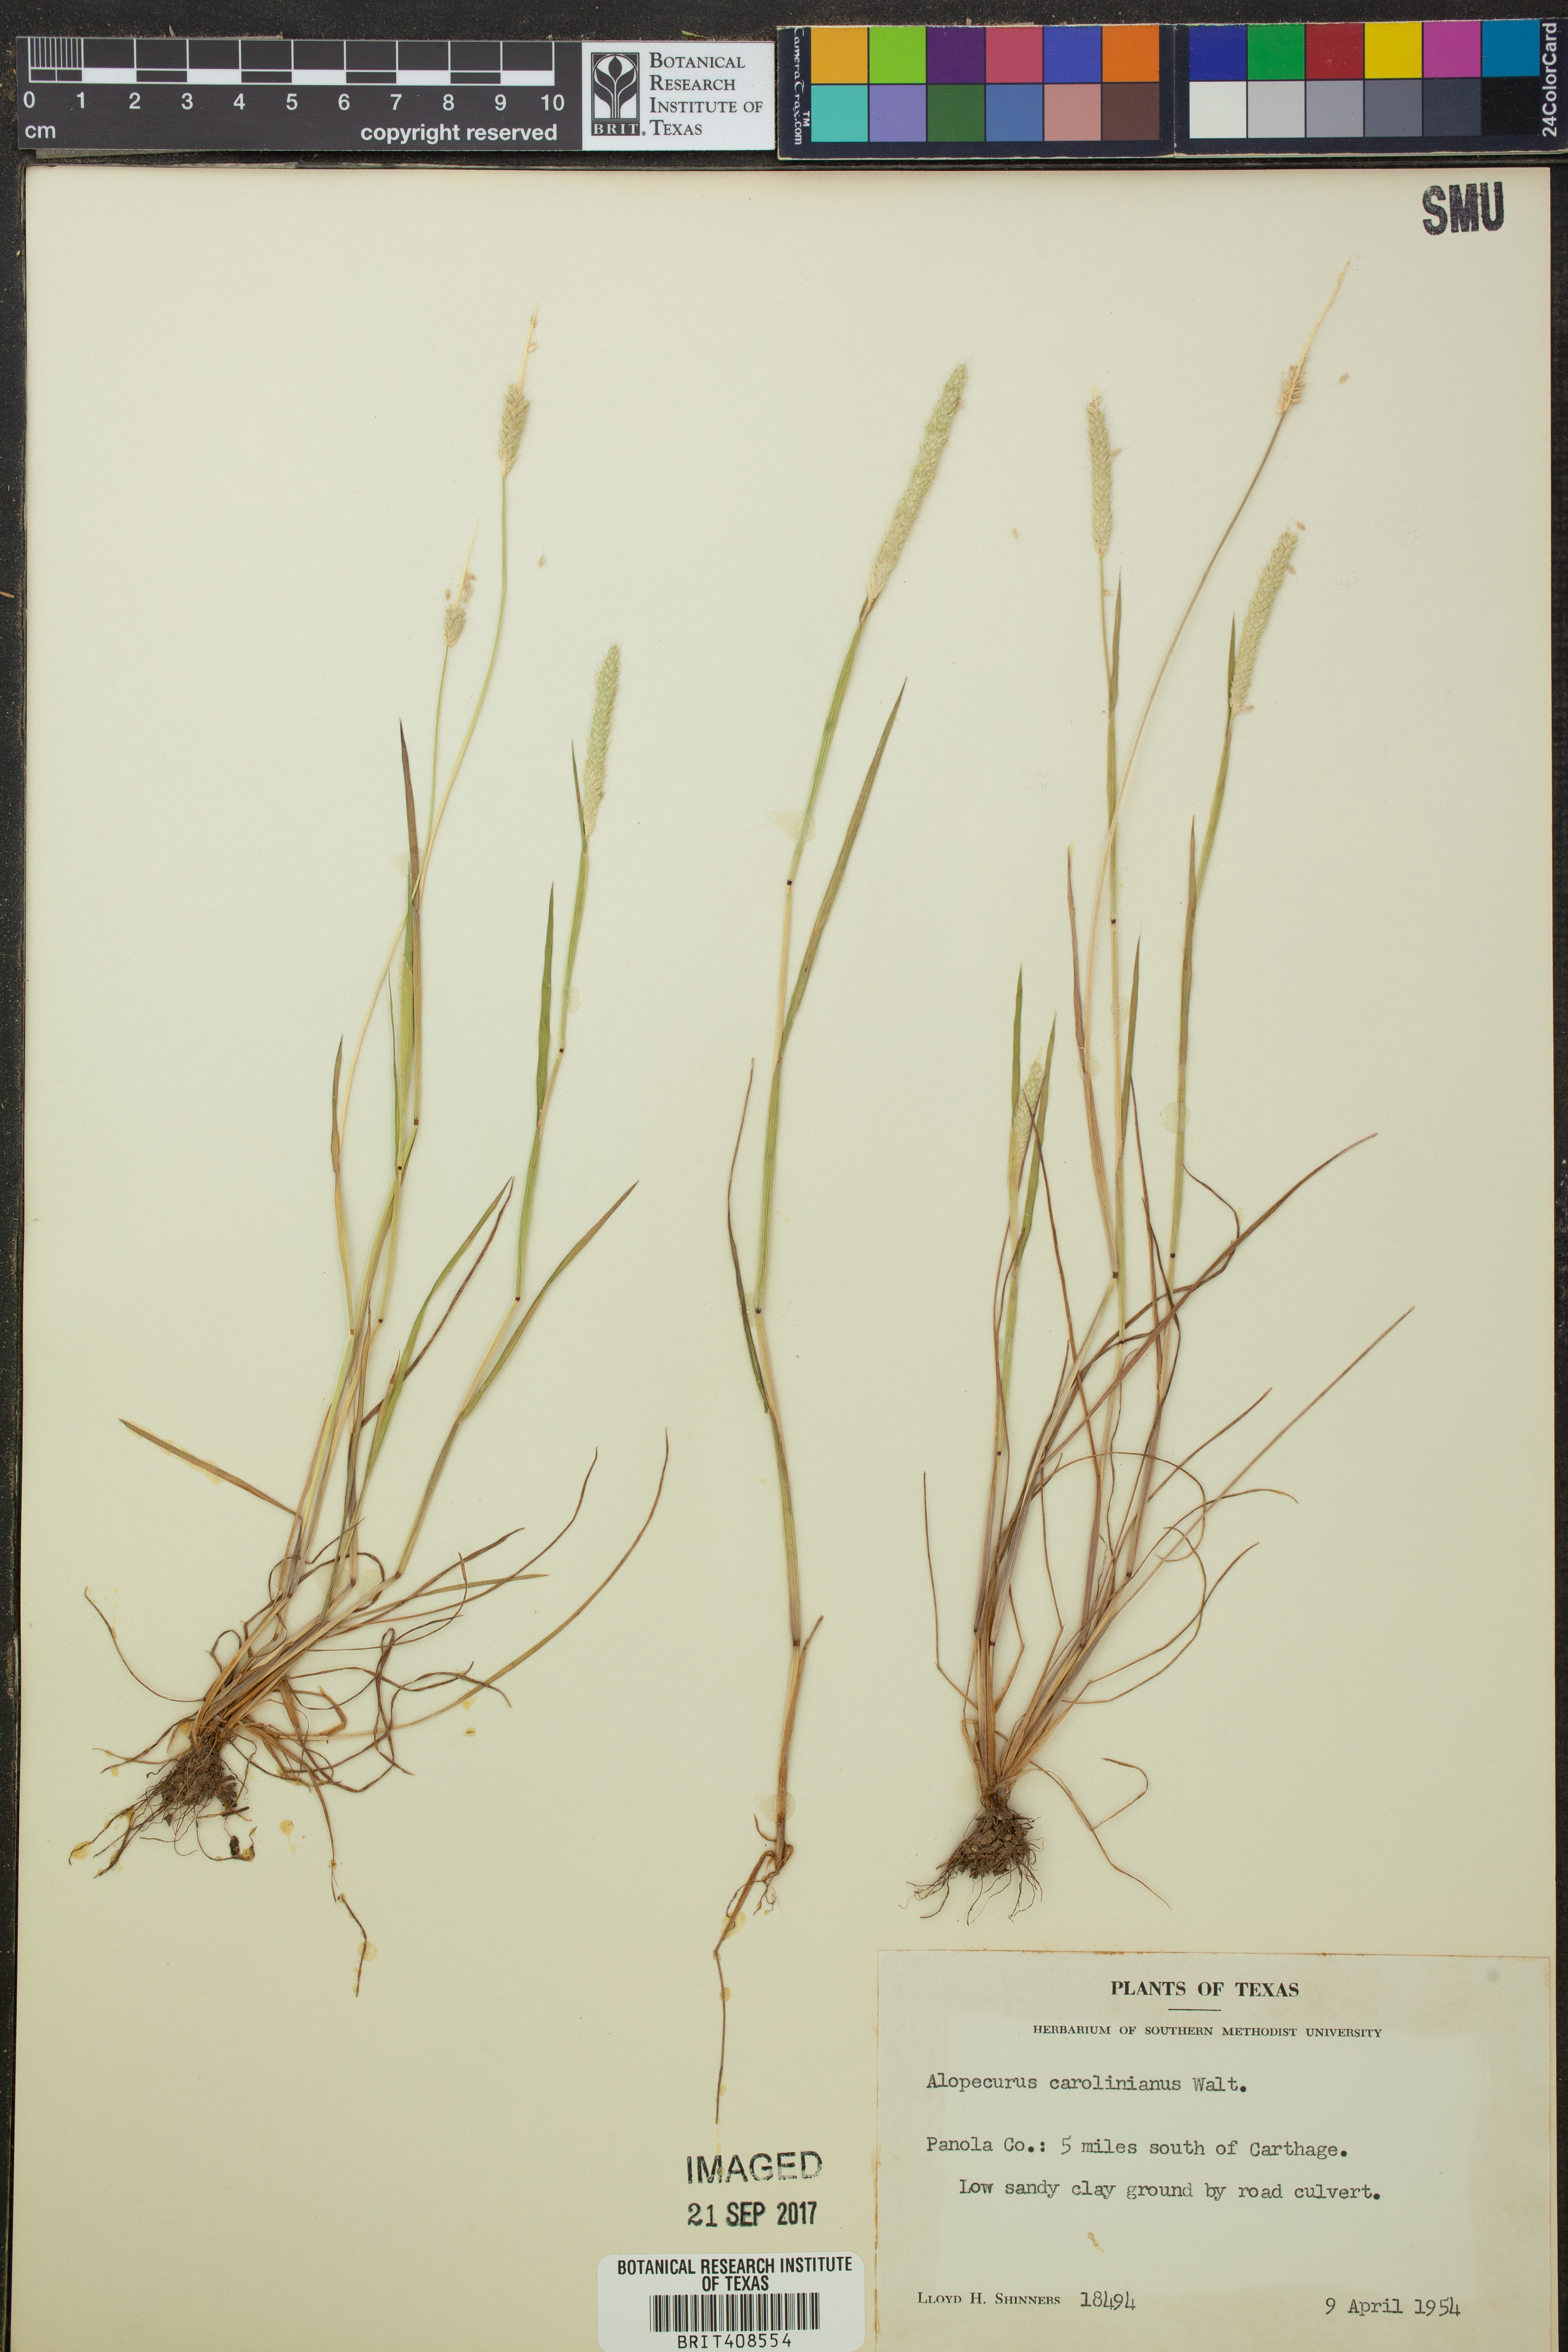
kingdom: Plantae
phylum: Tracheophyta
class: Liliopsida
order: Poales
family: Poaceae
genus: Alopecurus
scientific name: Alopecurus carolinianus
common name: Tufted foxtail
